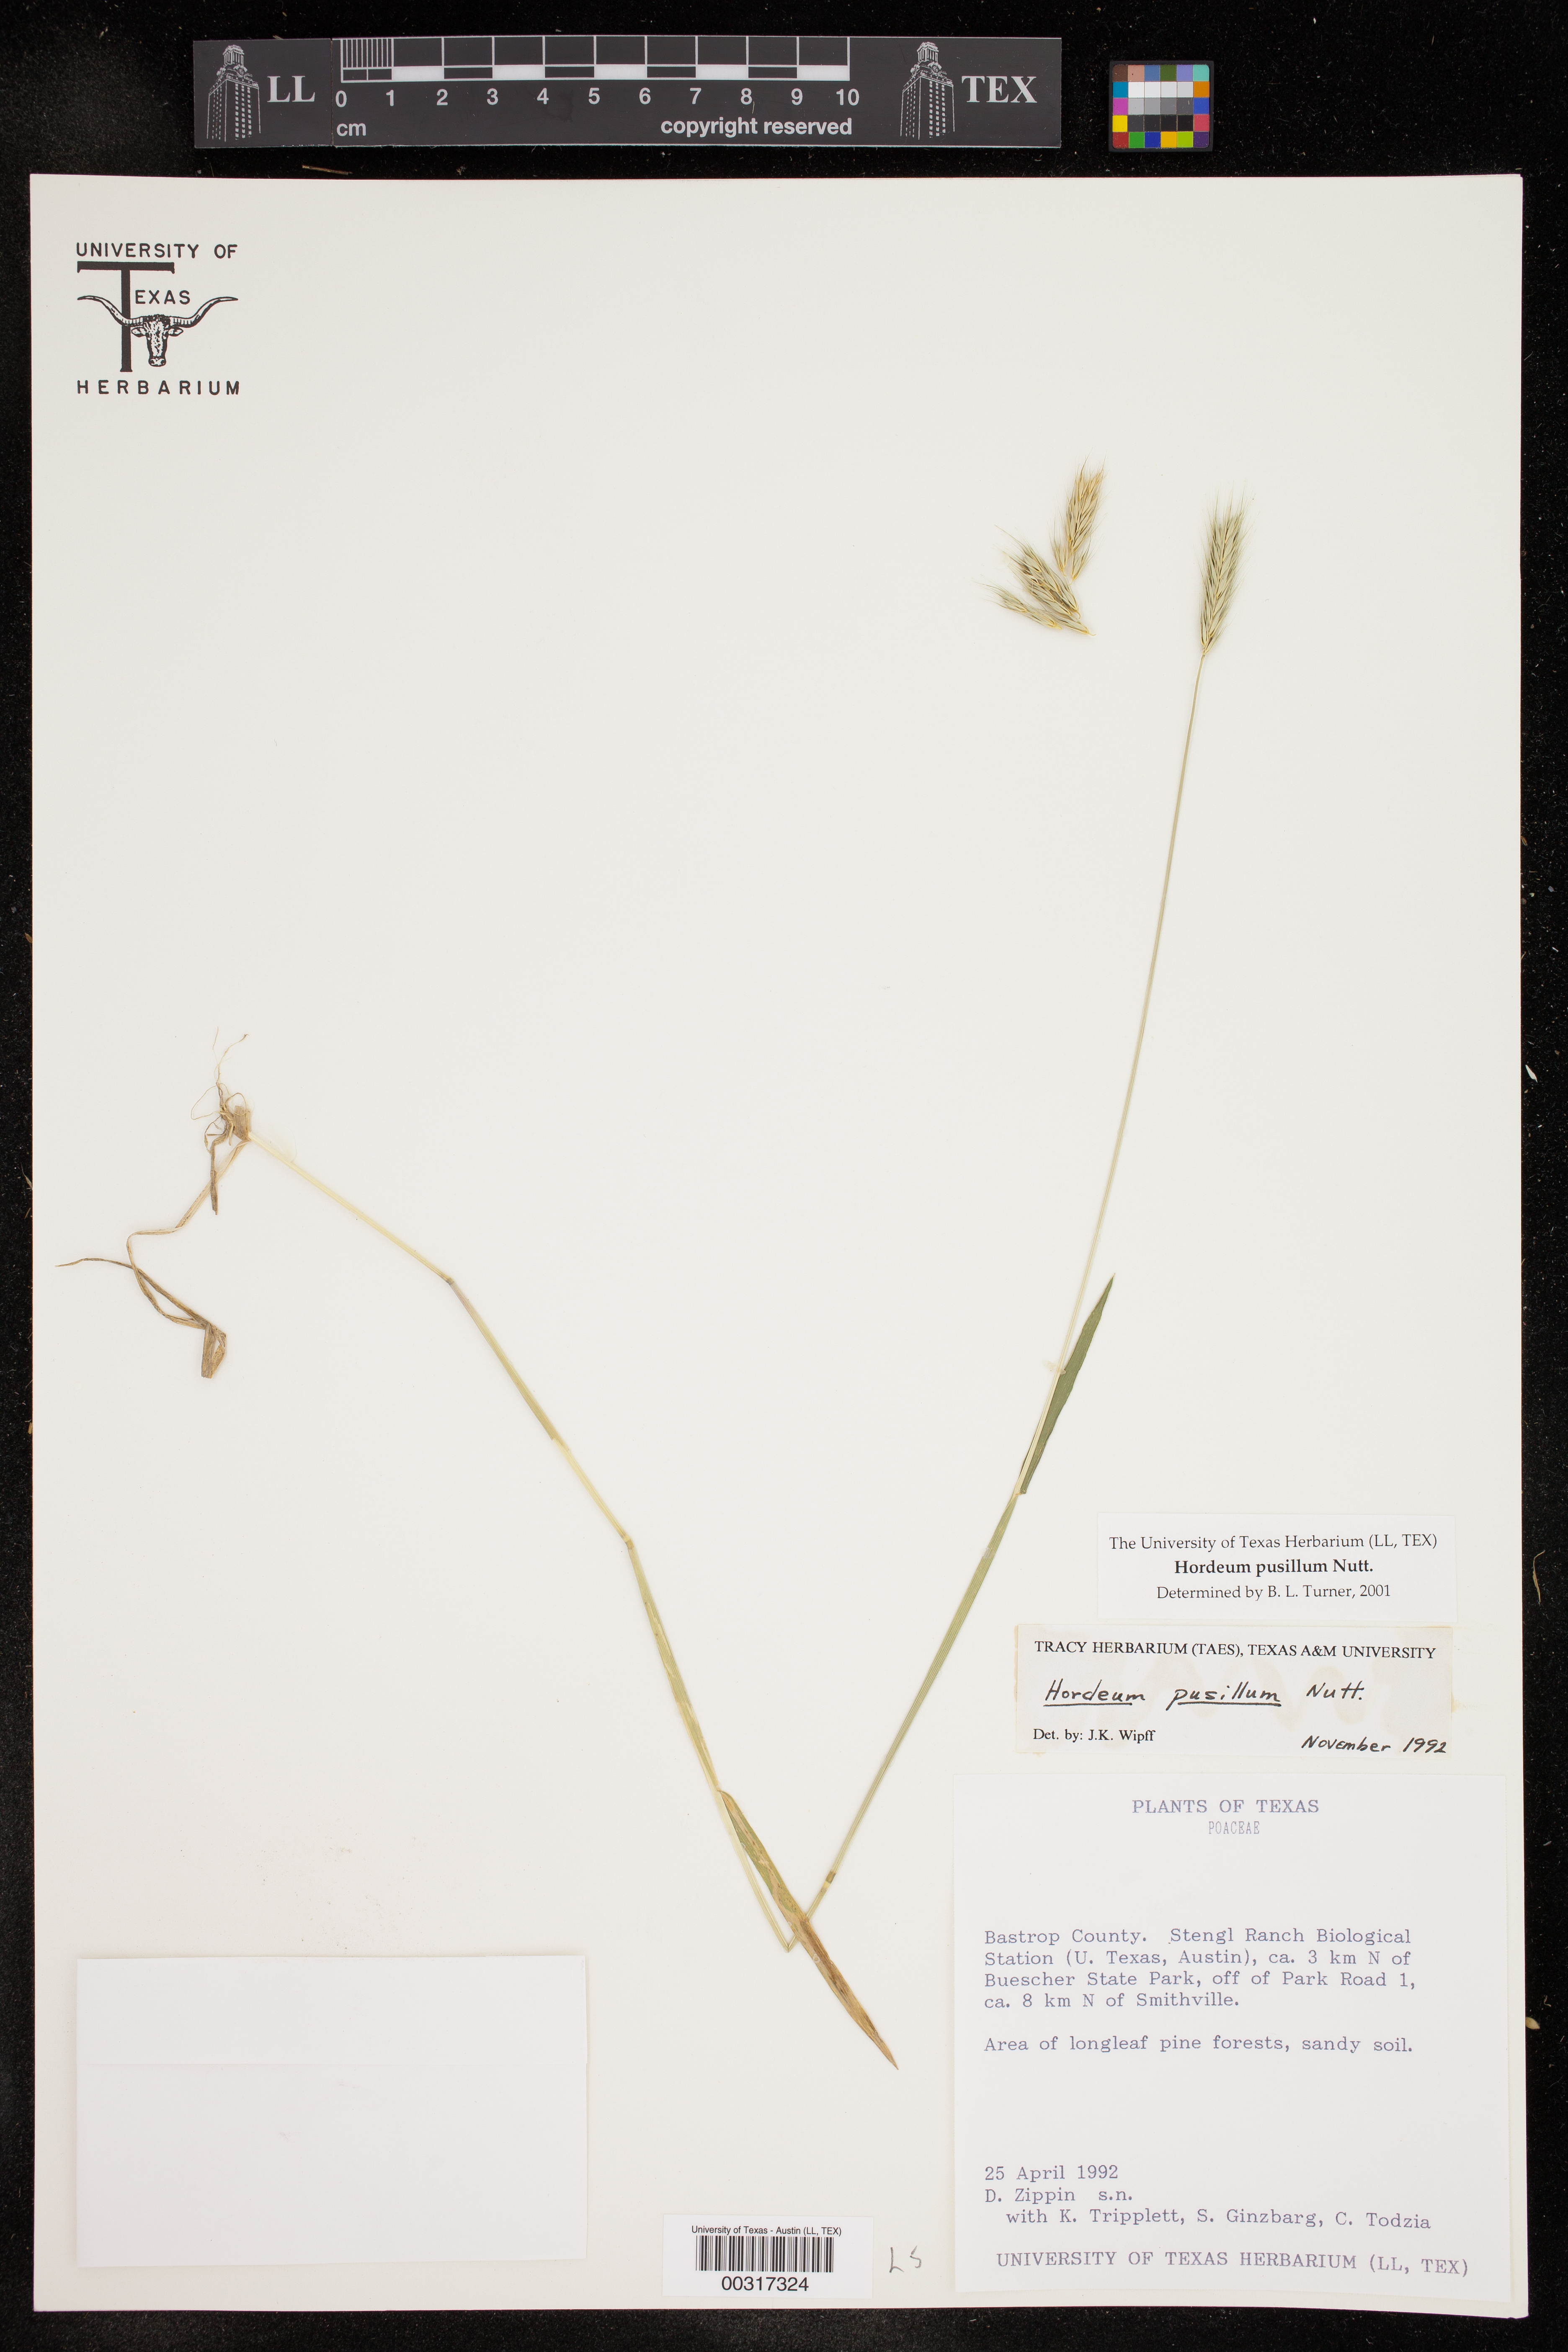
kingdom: Plantae
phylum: Tracheophyta
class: Liliopsida
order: Poales
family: Poaceae
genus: Hordeum
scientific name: Hordeum pusillum
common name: Little barley
